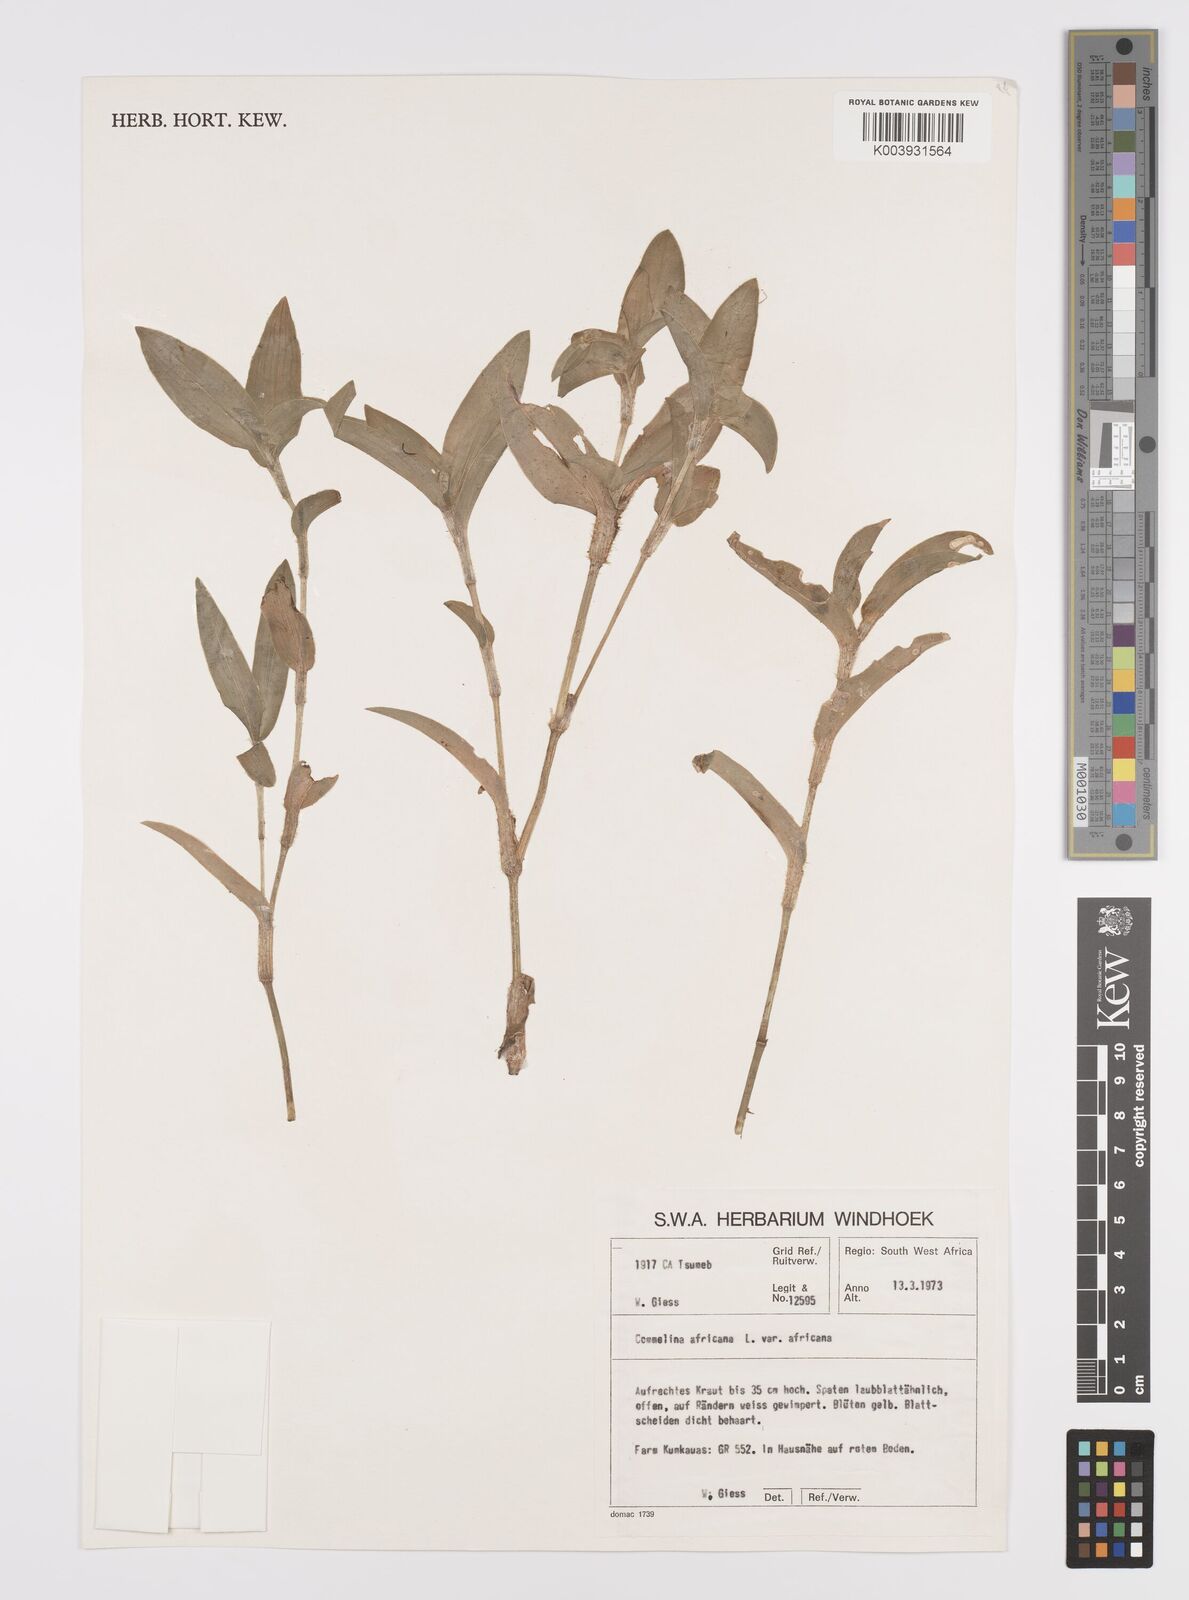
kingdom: Plantae
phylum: Tracheophyta
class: Liliopsida
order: Commelinales
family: Commelinaceae
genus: Commelina
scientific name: Commelina africana
